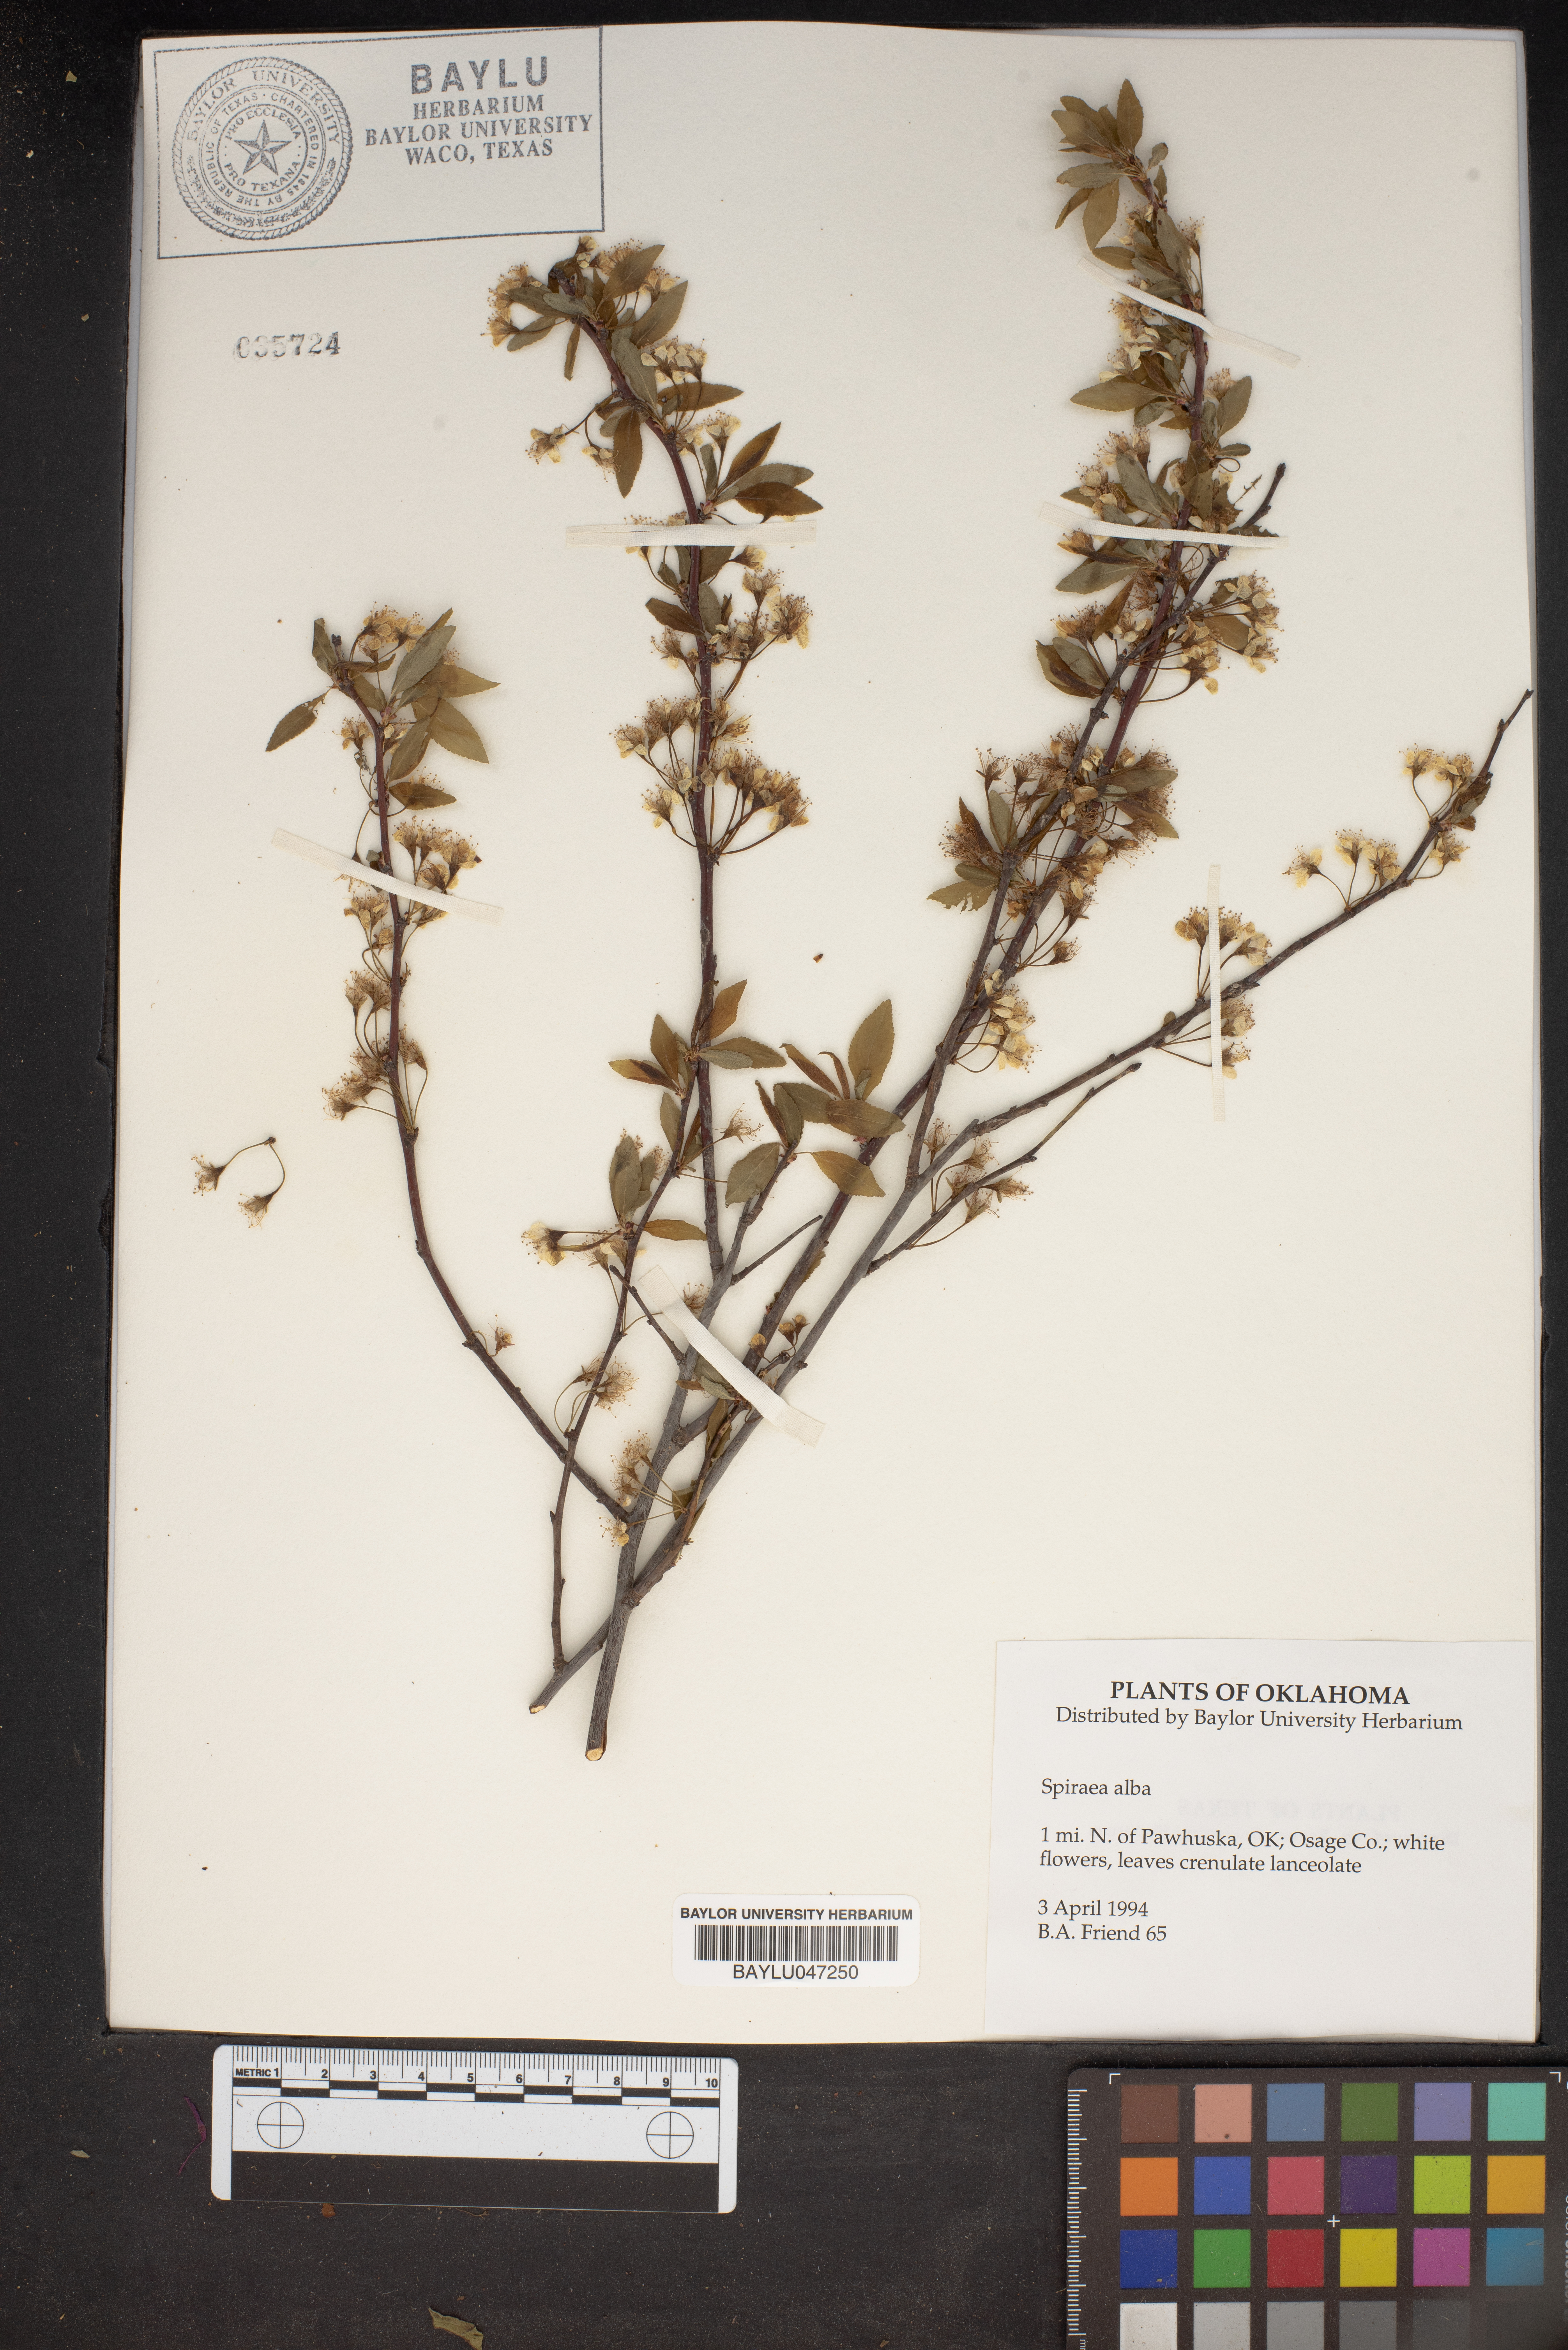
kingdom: Plantae
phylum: Tracheophyta
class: Magnoliopsida
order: Rosales
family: Rosaceae
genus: Spiraea
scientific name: Spiraea alba
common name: Pale bridewort
